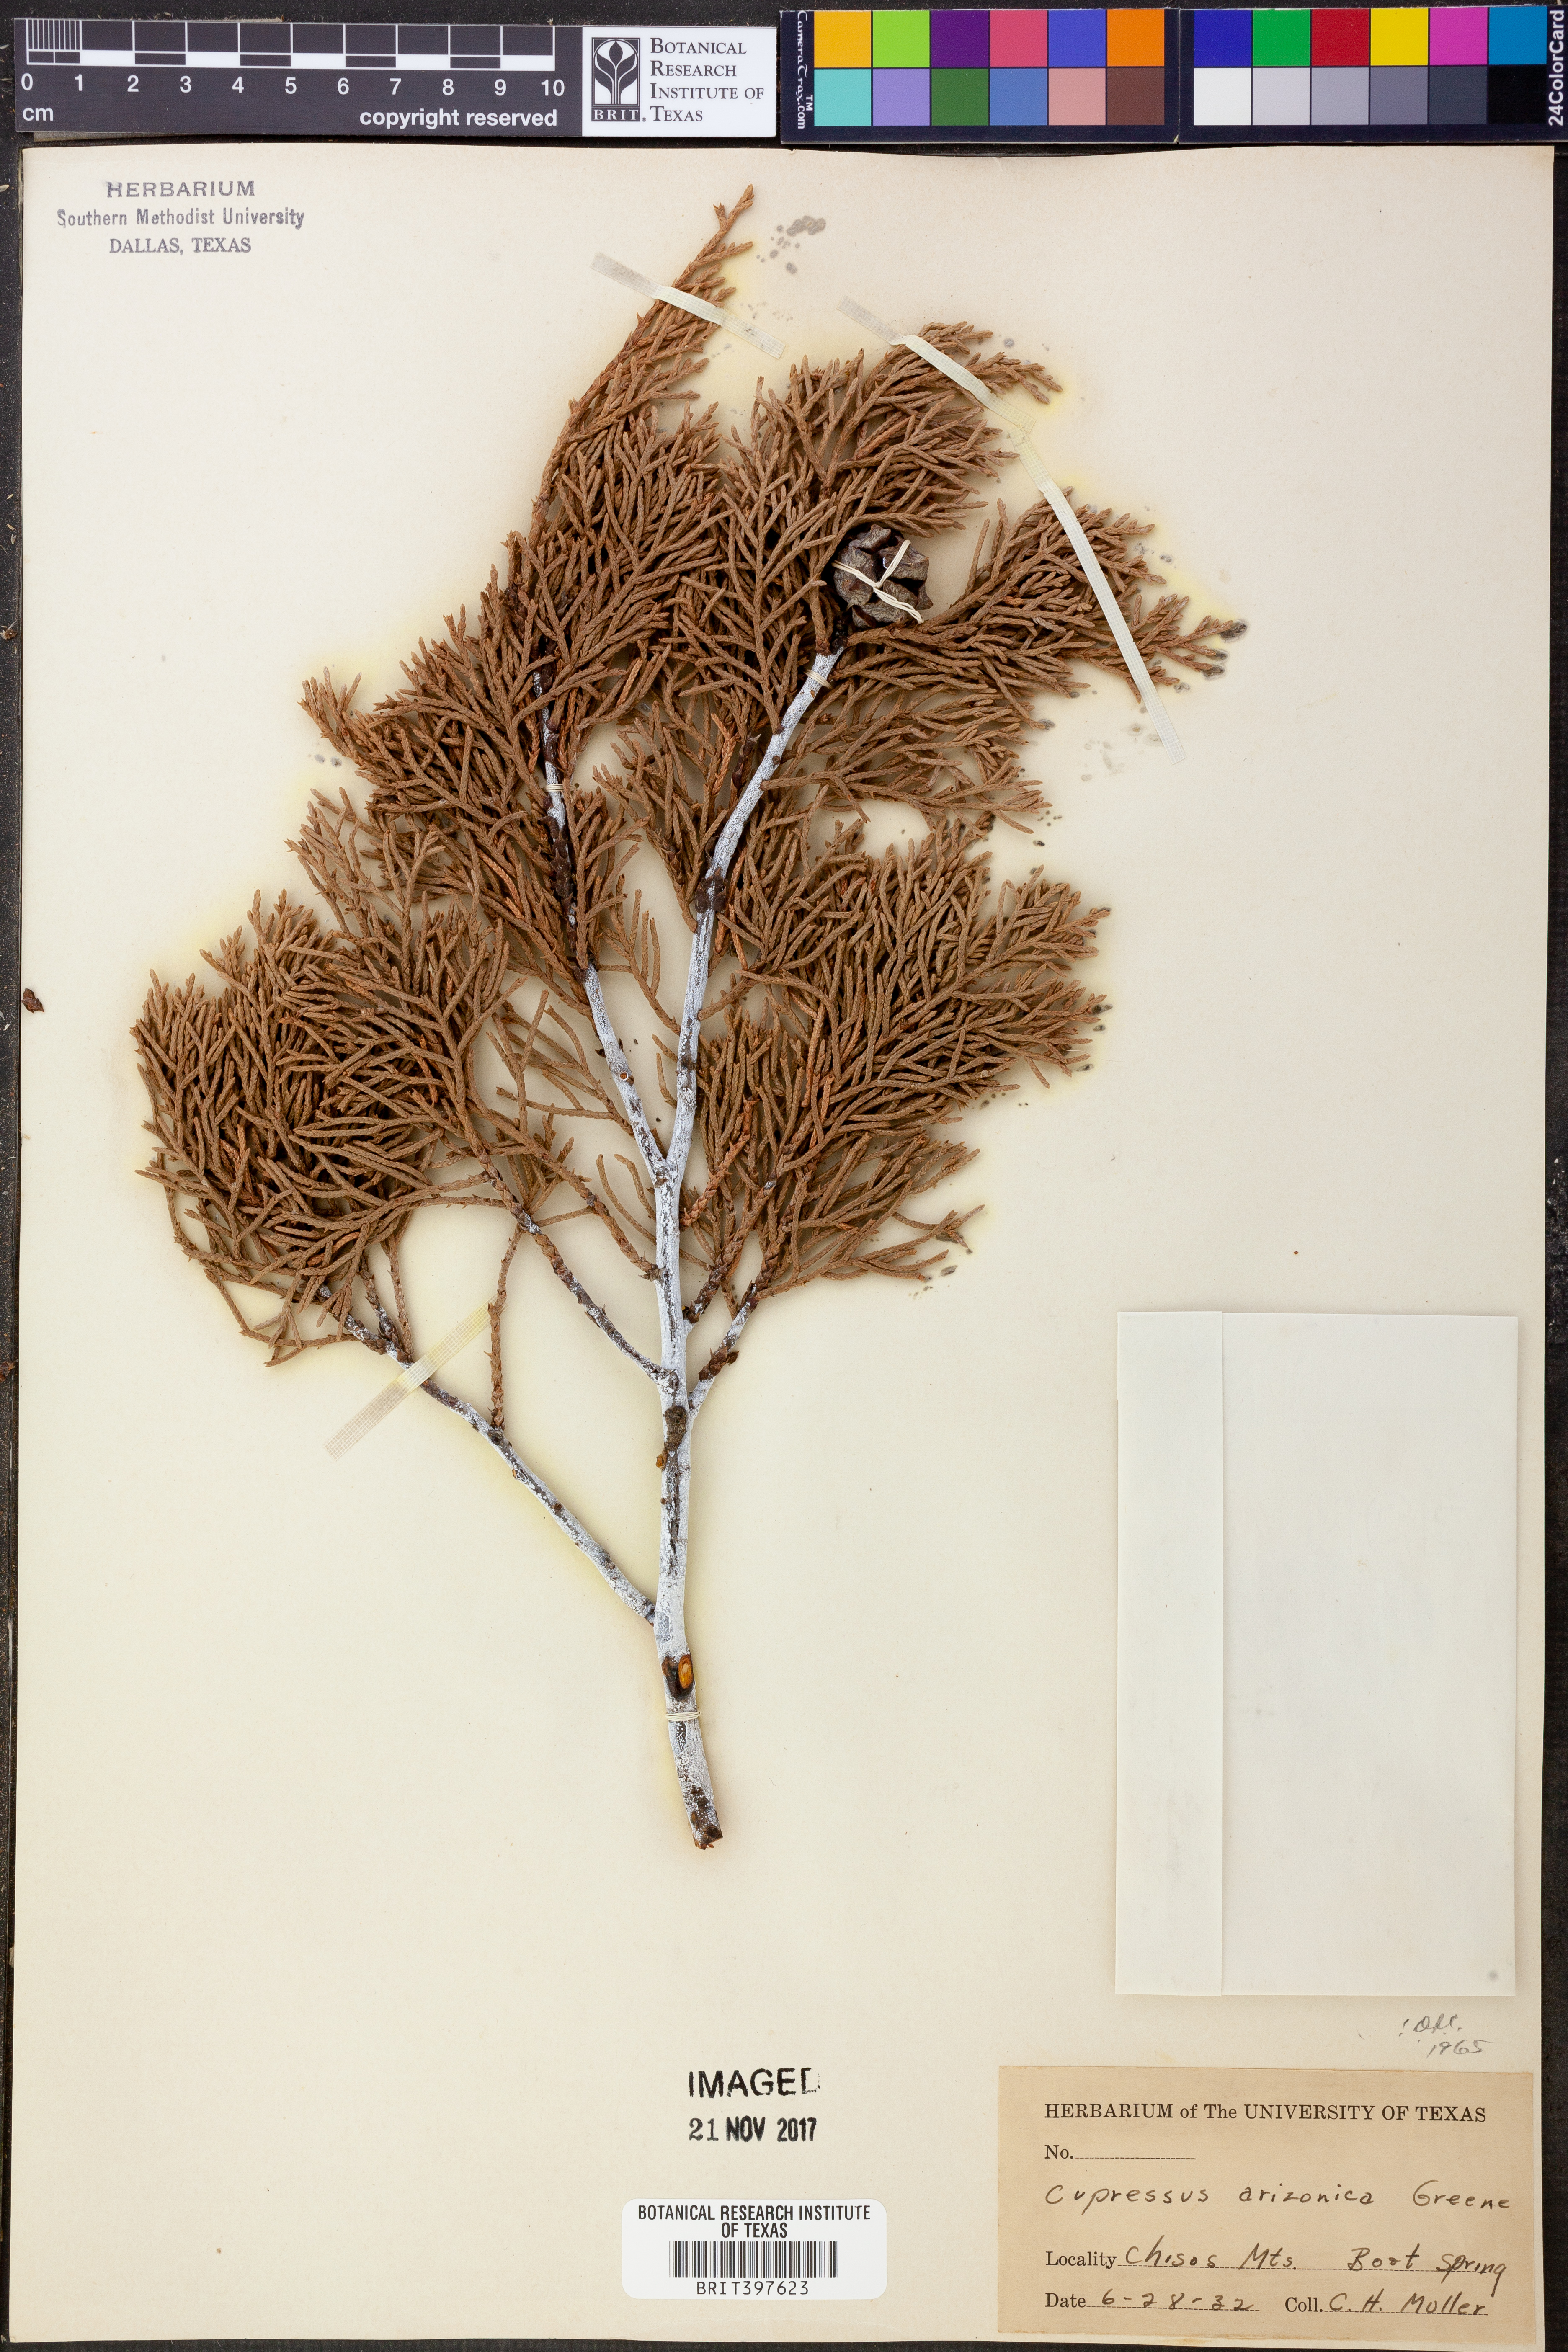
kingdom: Plantae
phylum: Tracheophyta
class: Pinopsida
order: Pinales
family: Cupressaceae
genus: Cupressus
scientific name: Cupressus arizonica
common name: Arizona cypress
